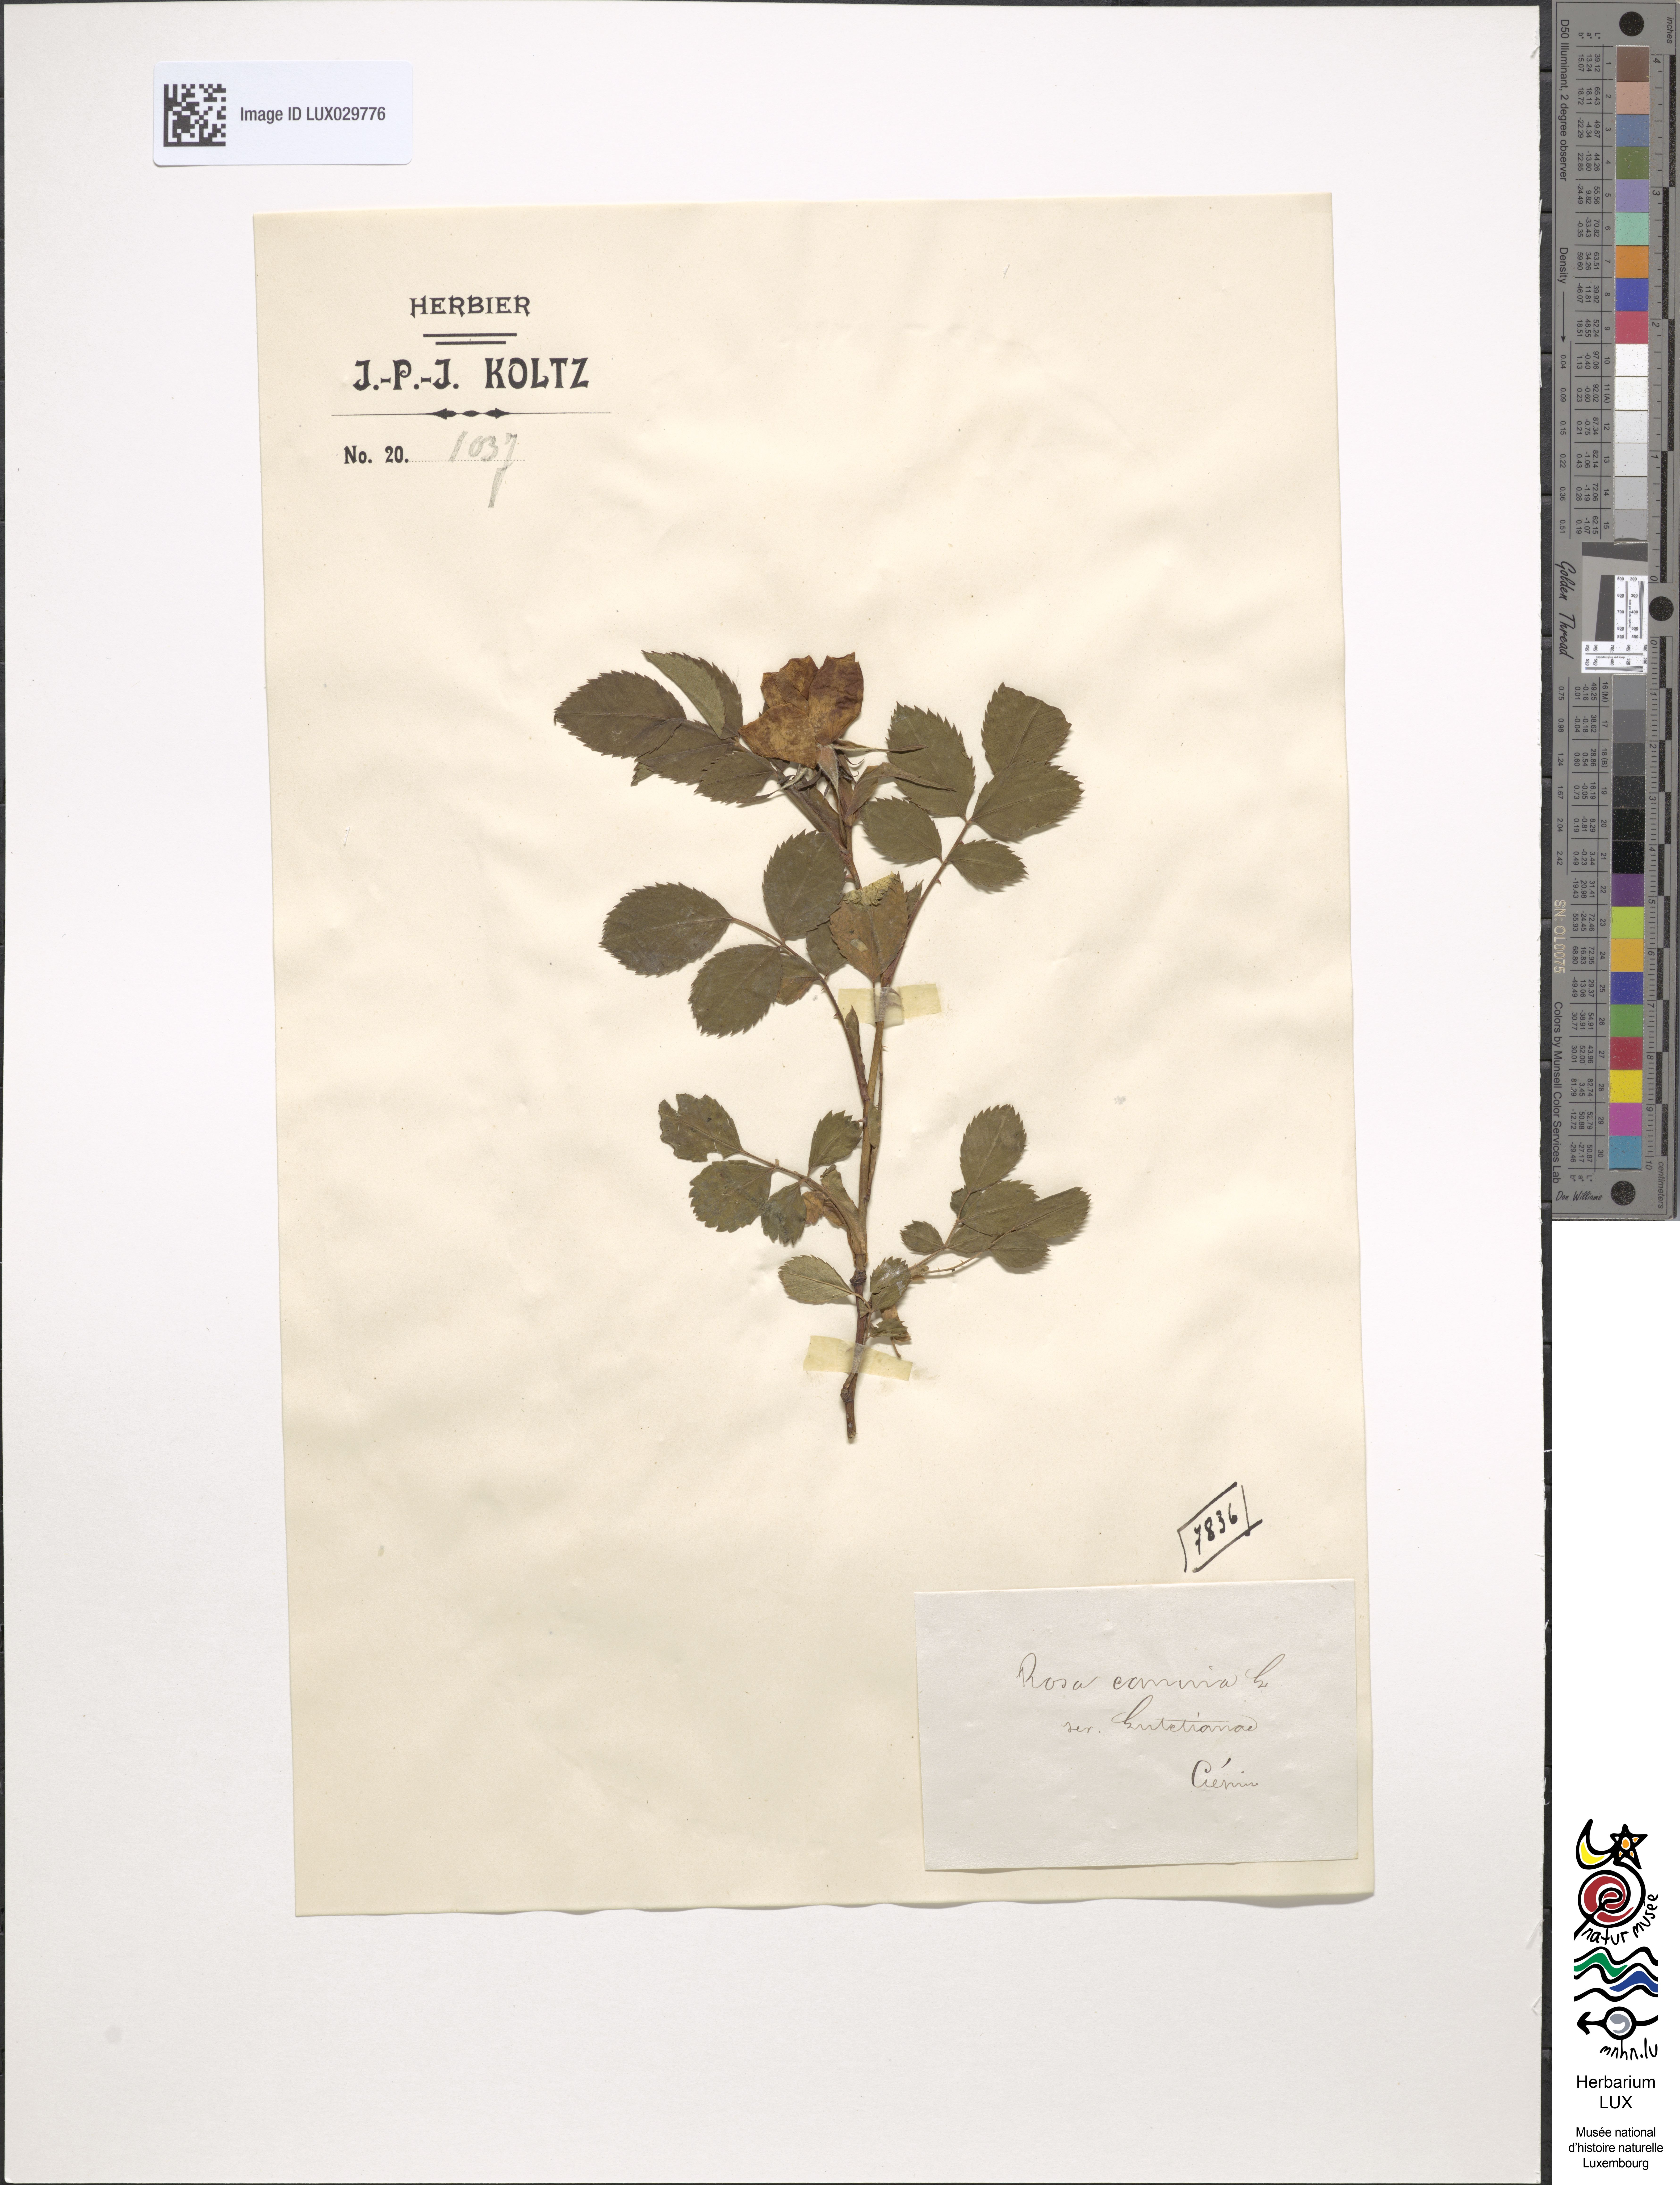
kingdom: Plantae
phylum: Tracheophyta
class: Magnoliopsida
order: Rosales
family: Rosaceae
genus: Rosa
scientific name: Rosa canina
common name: Dog rose
